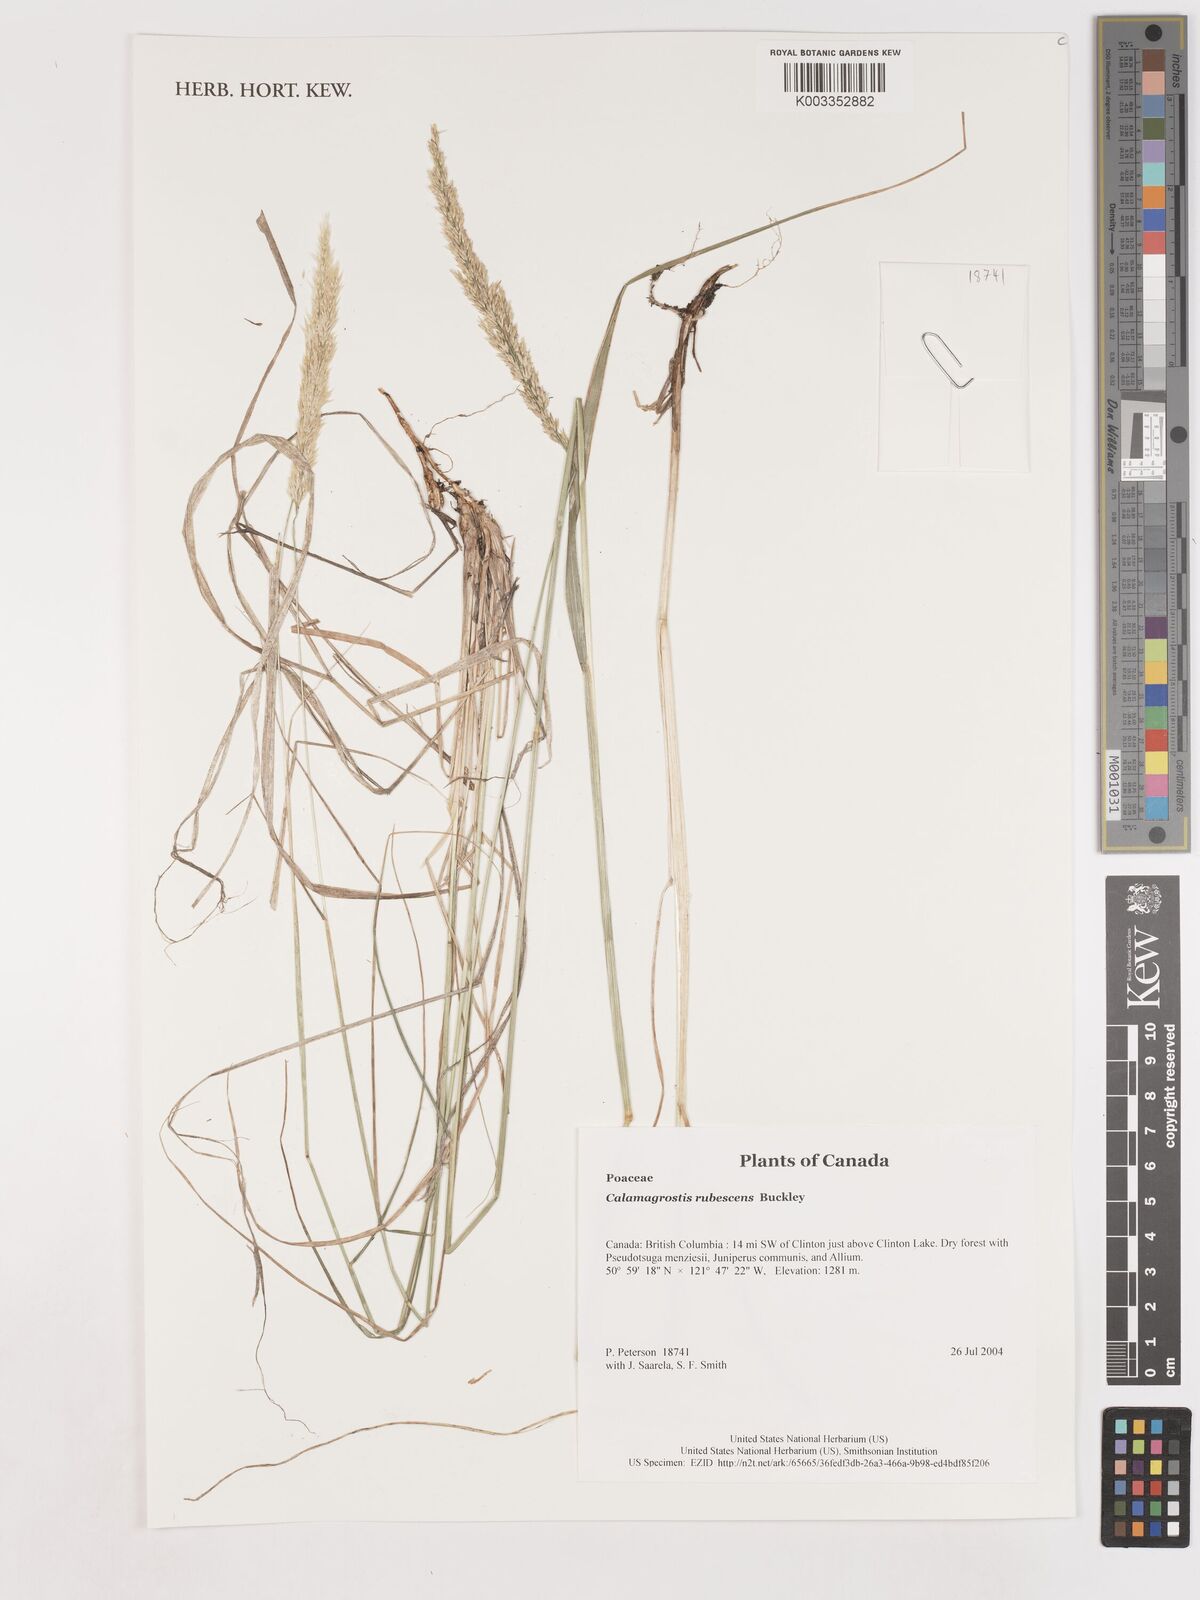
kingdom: Plantae
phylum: Tracheophyta
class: Liliopsida
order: Poales
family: Poaceae
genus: Calamagrostis
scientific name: Calamagrostis rubescens
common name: Pine grass
